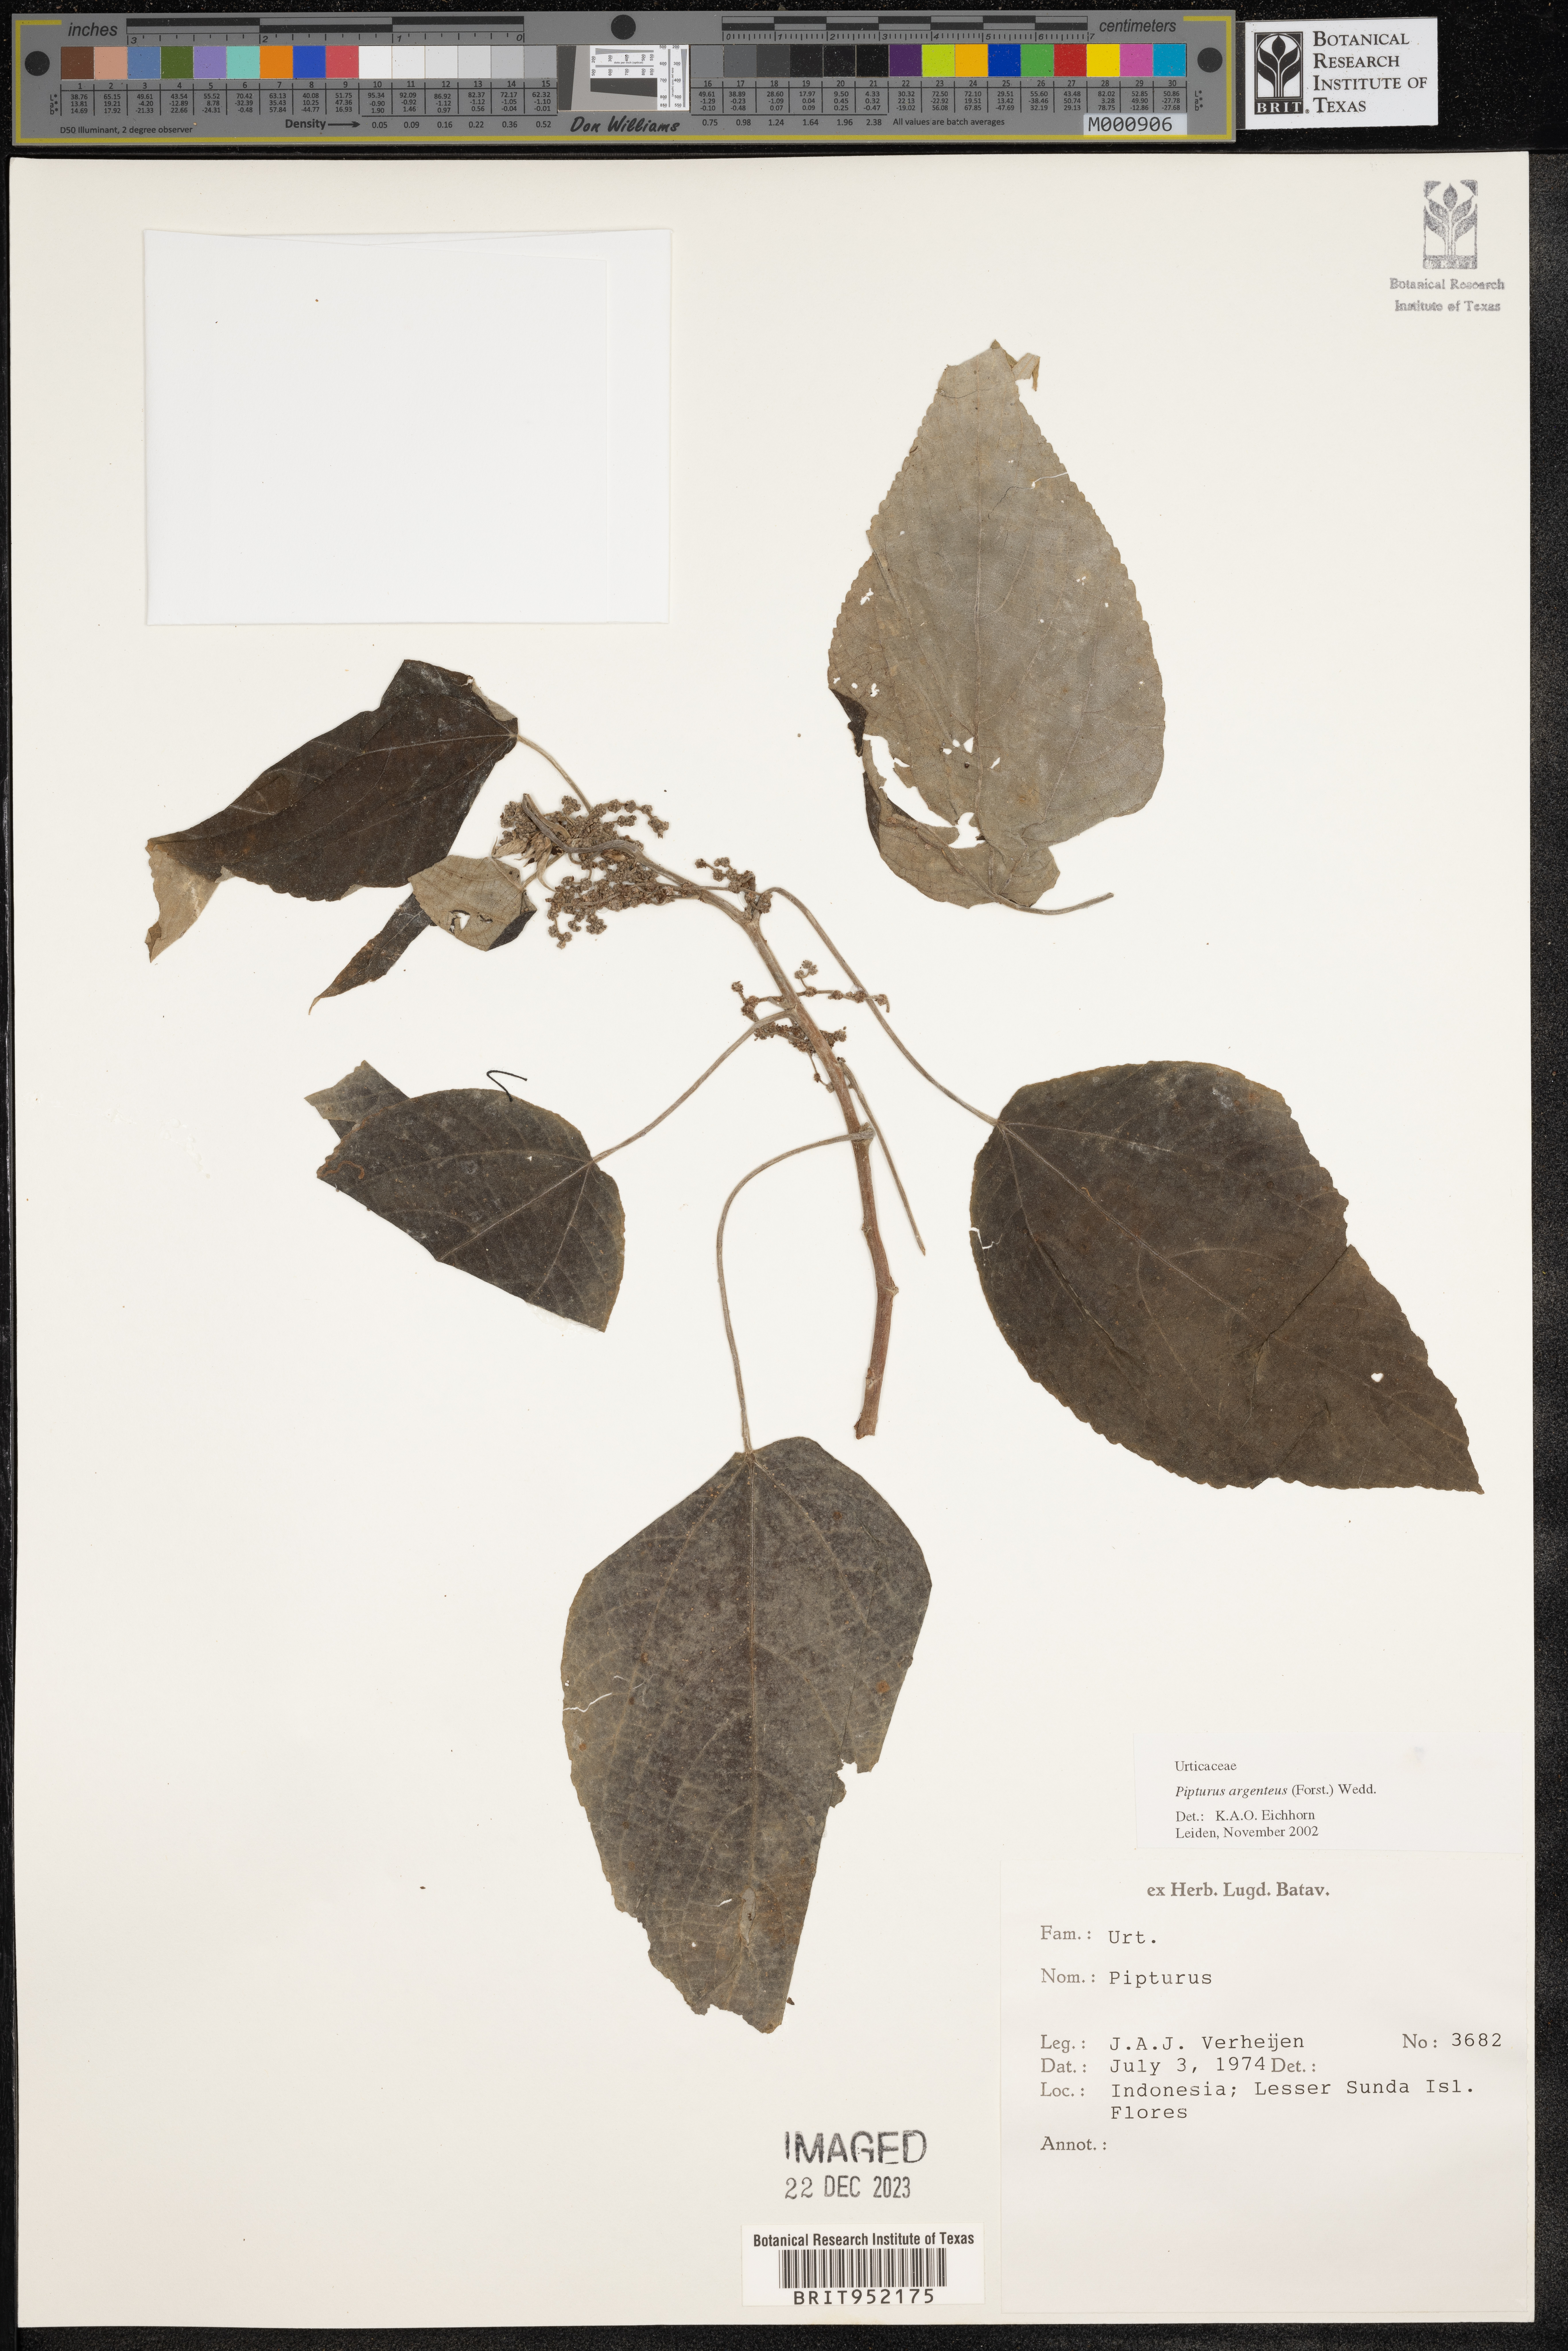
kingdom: Plantae
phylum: Tracheophyta
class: Magnoliopsida
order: Rosales
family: Urticaceae
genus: Pipturus
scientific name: Pipturus argenteus
